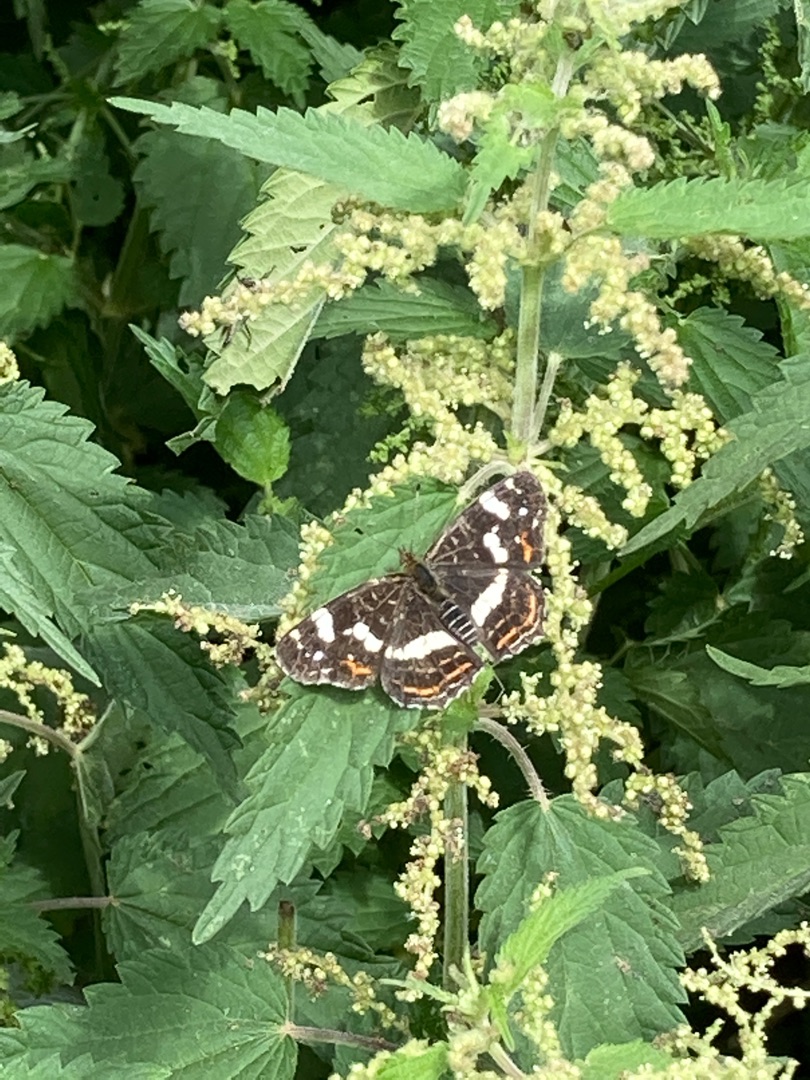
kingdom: Animalia
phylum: Arthropoda
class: Insecta
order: Lepidoptera
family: Nymphalidae
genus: Araschnia
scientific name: Araschnia levana
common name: Nældesommerfugl
